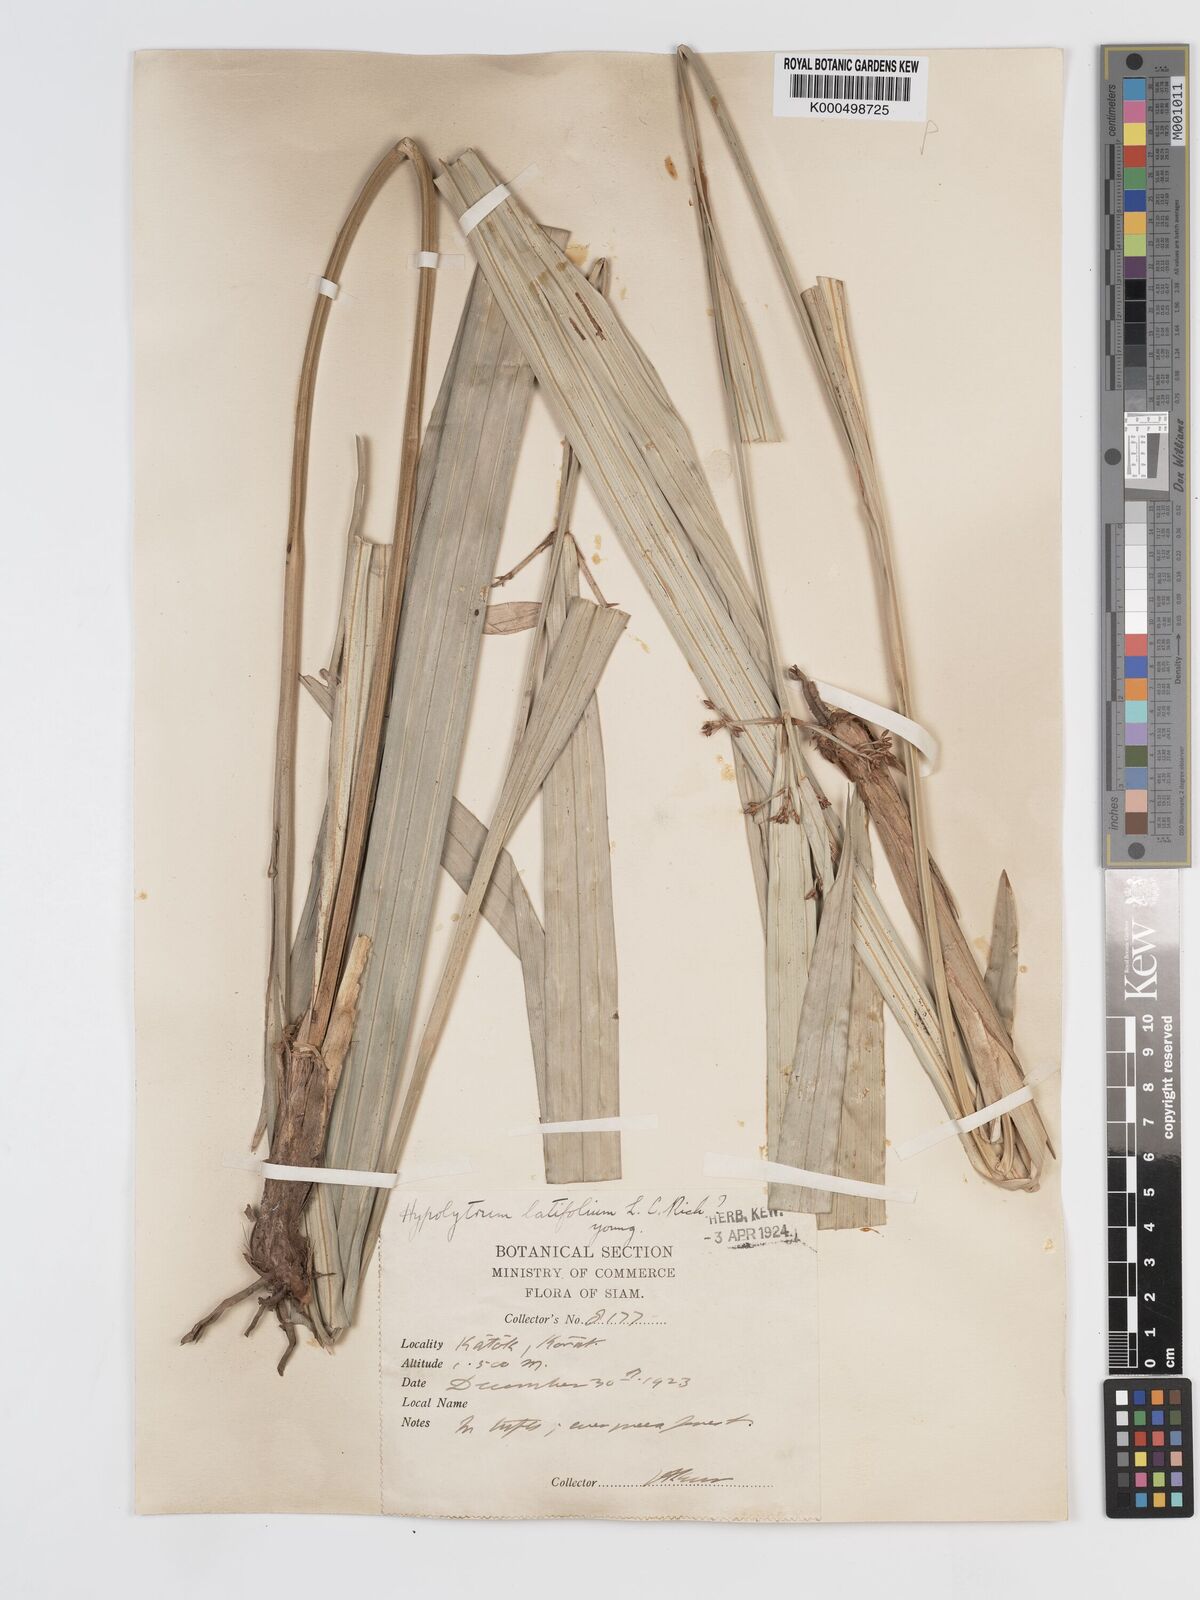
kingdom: Plantae
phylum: Tracheophyta
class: Liliopsida
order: Poales
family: Cyperaceae
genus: Hypolytrum
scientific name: Hypolytrum nemorum
